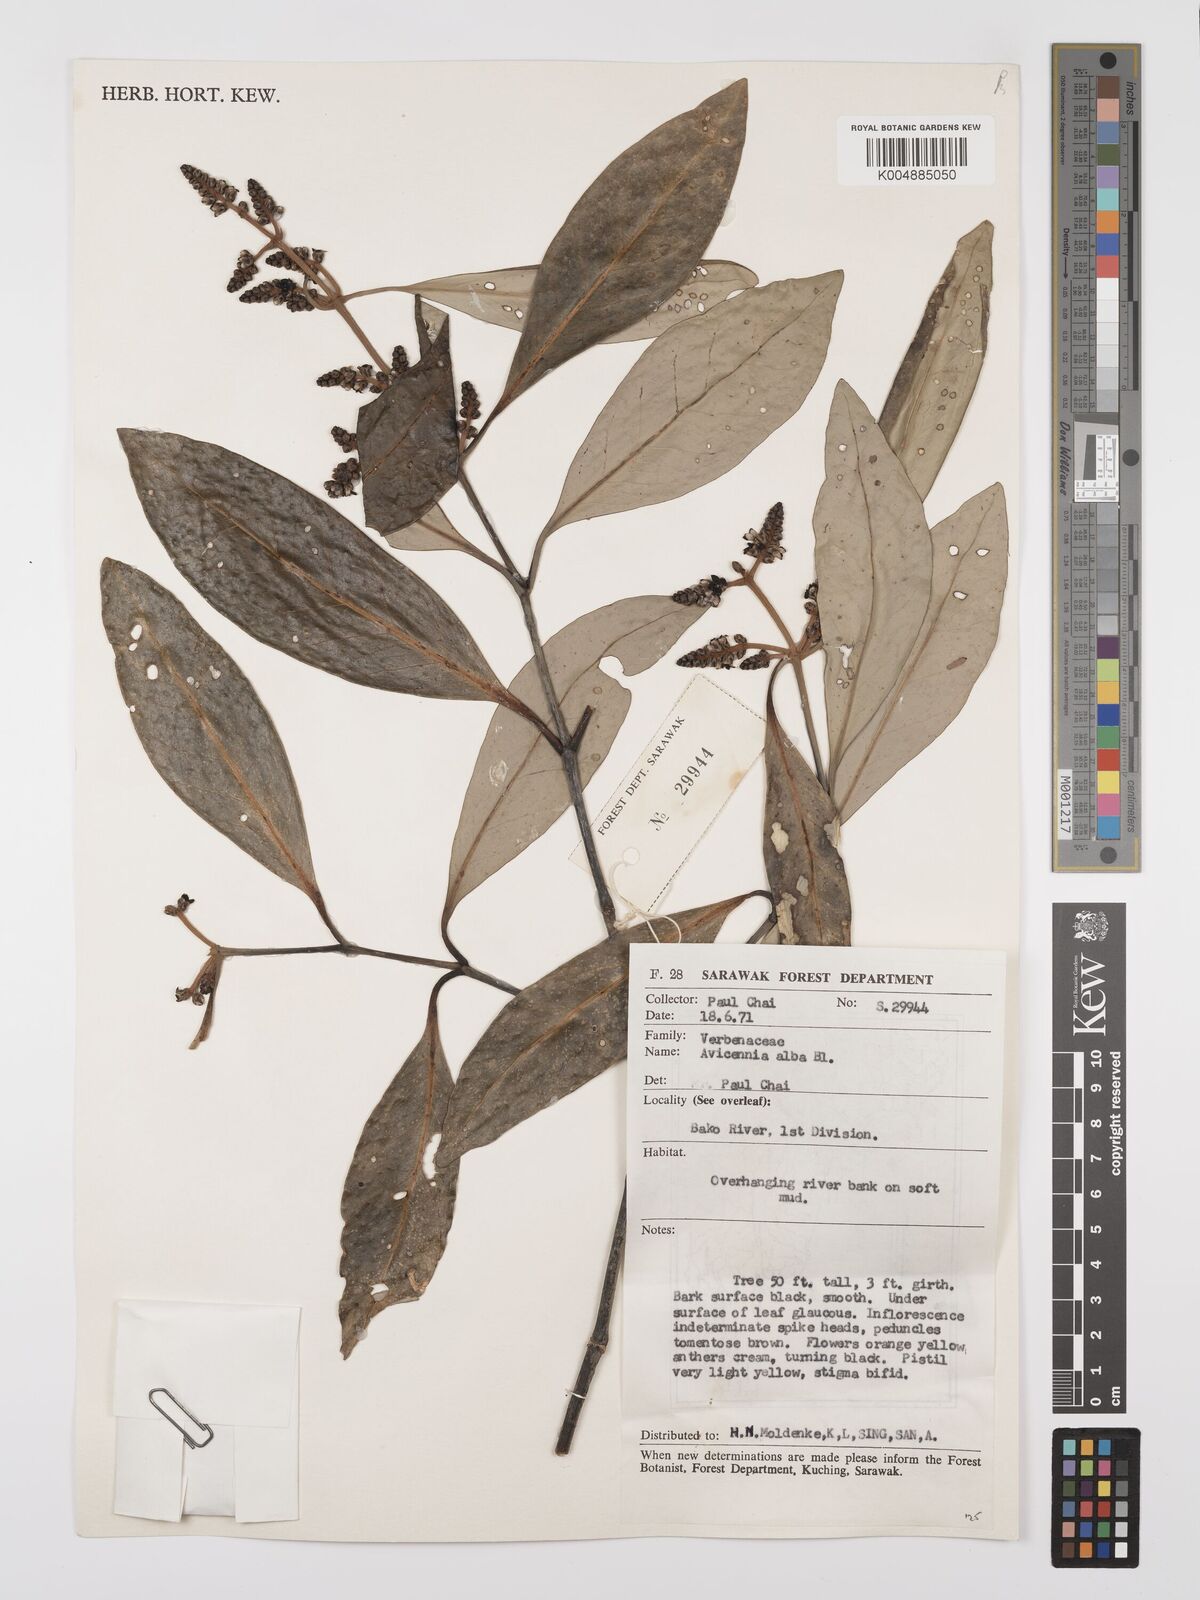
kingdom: Plantae
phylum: Tracheophyta
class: Magnoliopsida
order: Lamiales
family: Acanthaceae
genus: Avicennia
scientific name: Avicennia alba
